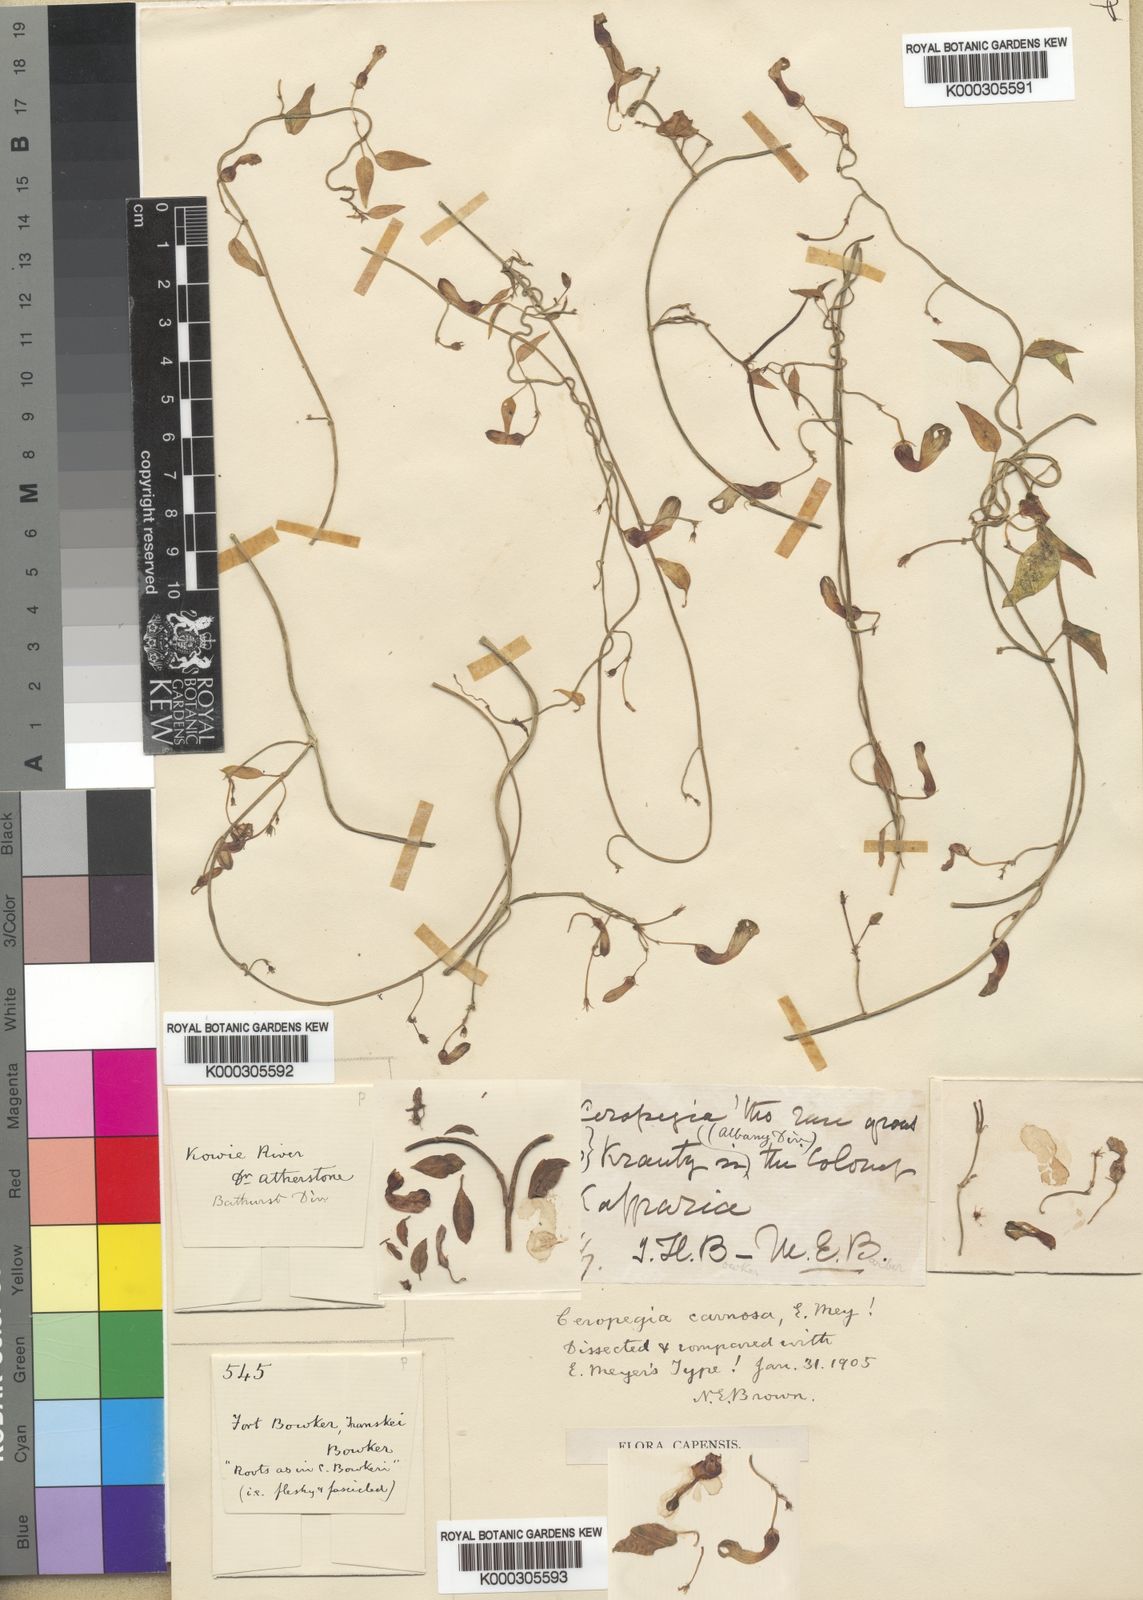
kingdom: Plantae
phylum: Tracheophyta
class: Magnoliopsida
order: Gentianales
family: Apocynaceae
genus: Ceropegia
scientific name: Ceropegia carnosa
